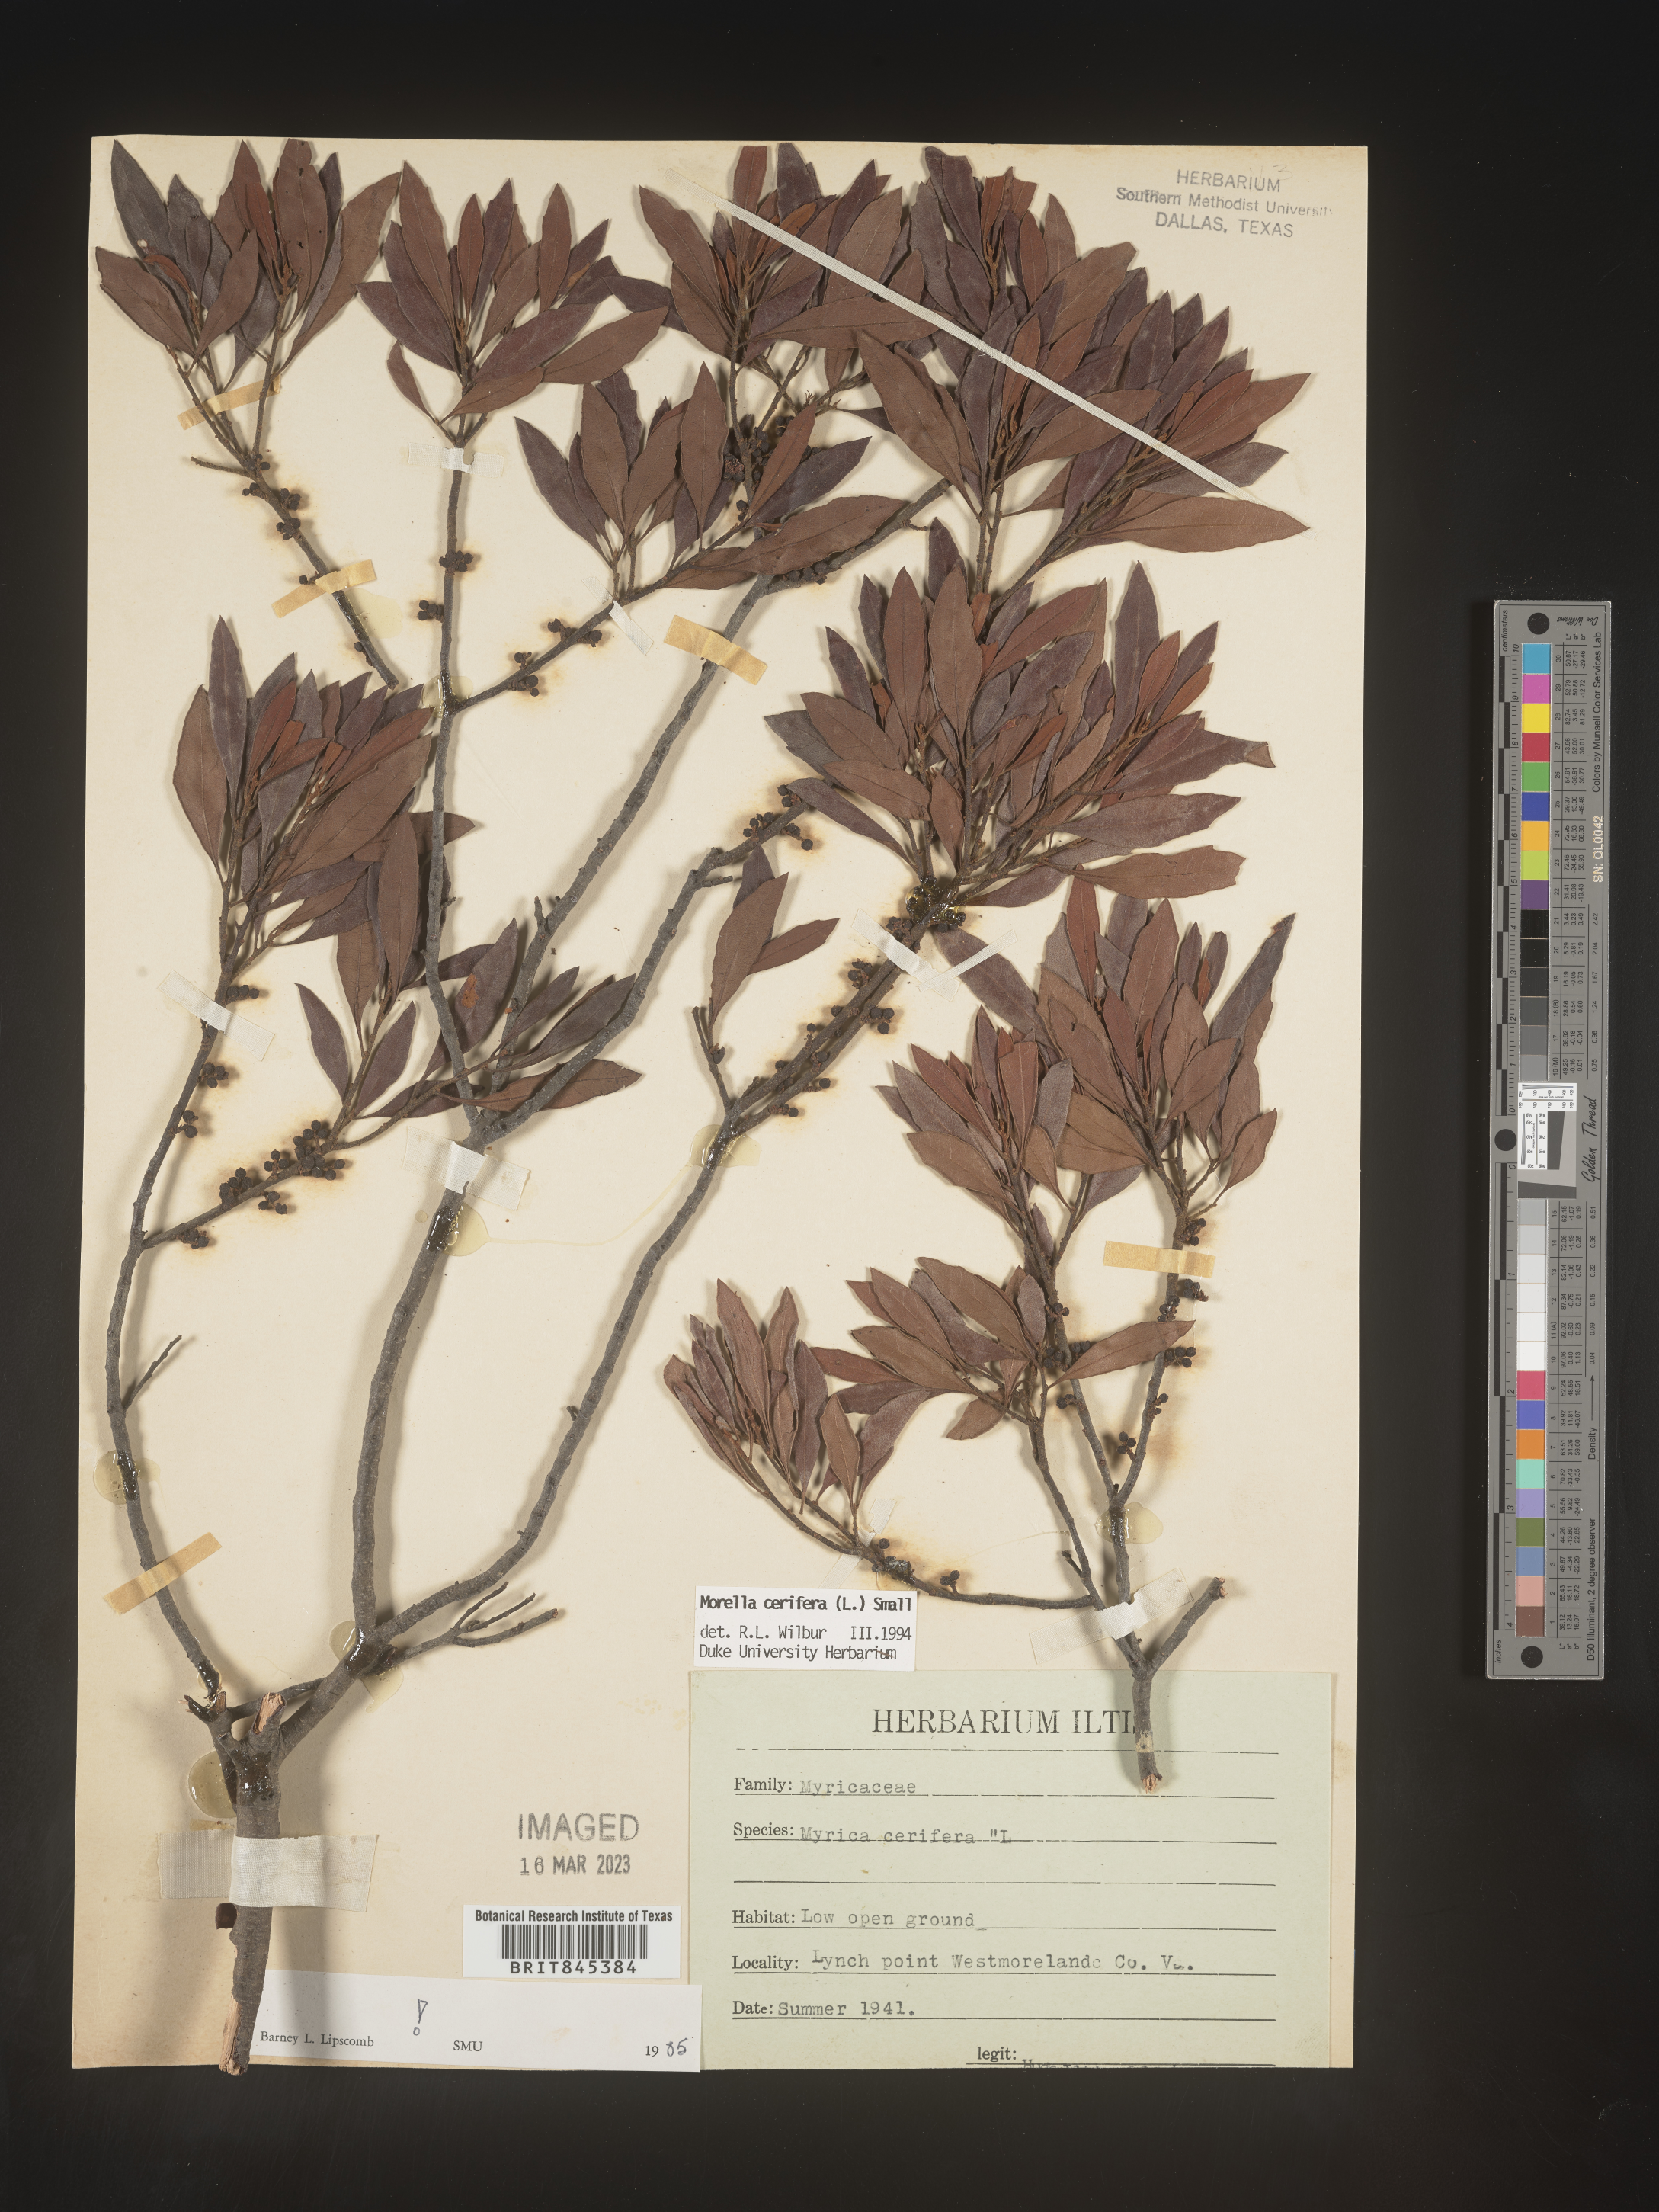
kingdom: Plantae
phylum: Tracheophyta
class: Magnoliopsida
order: Fagales
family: Myricaceae
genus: Morella
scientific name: Morella cerifera
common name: Wax myrtle
